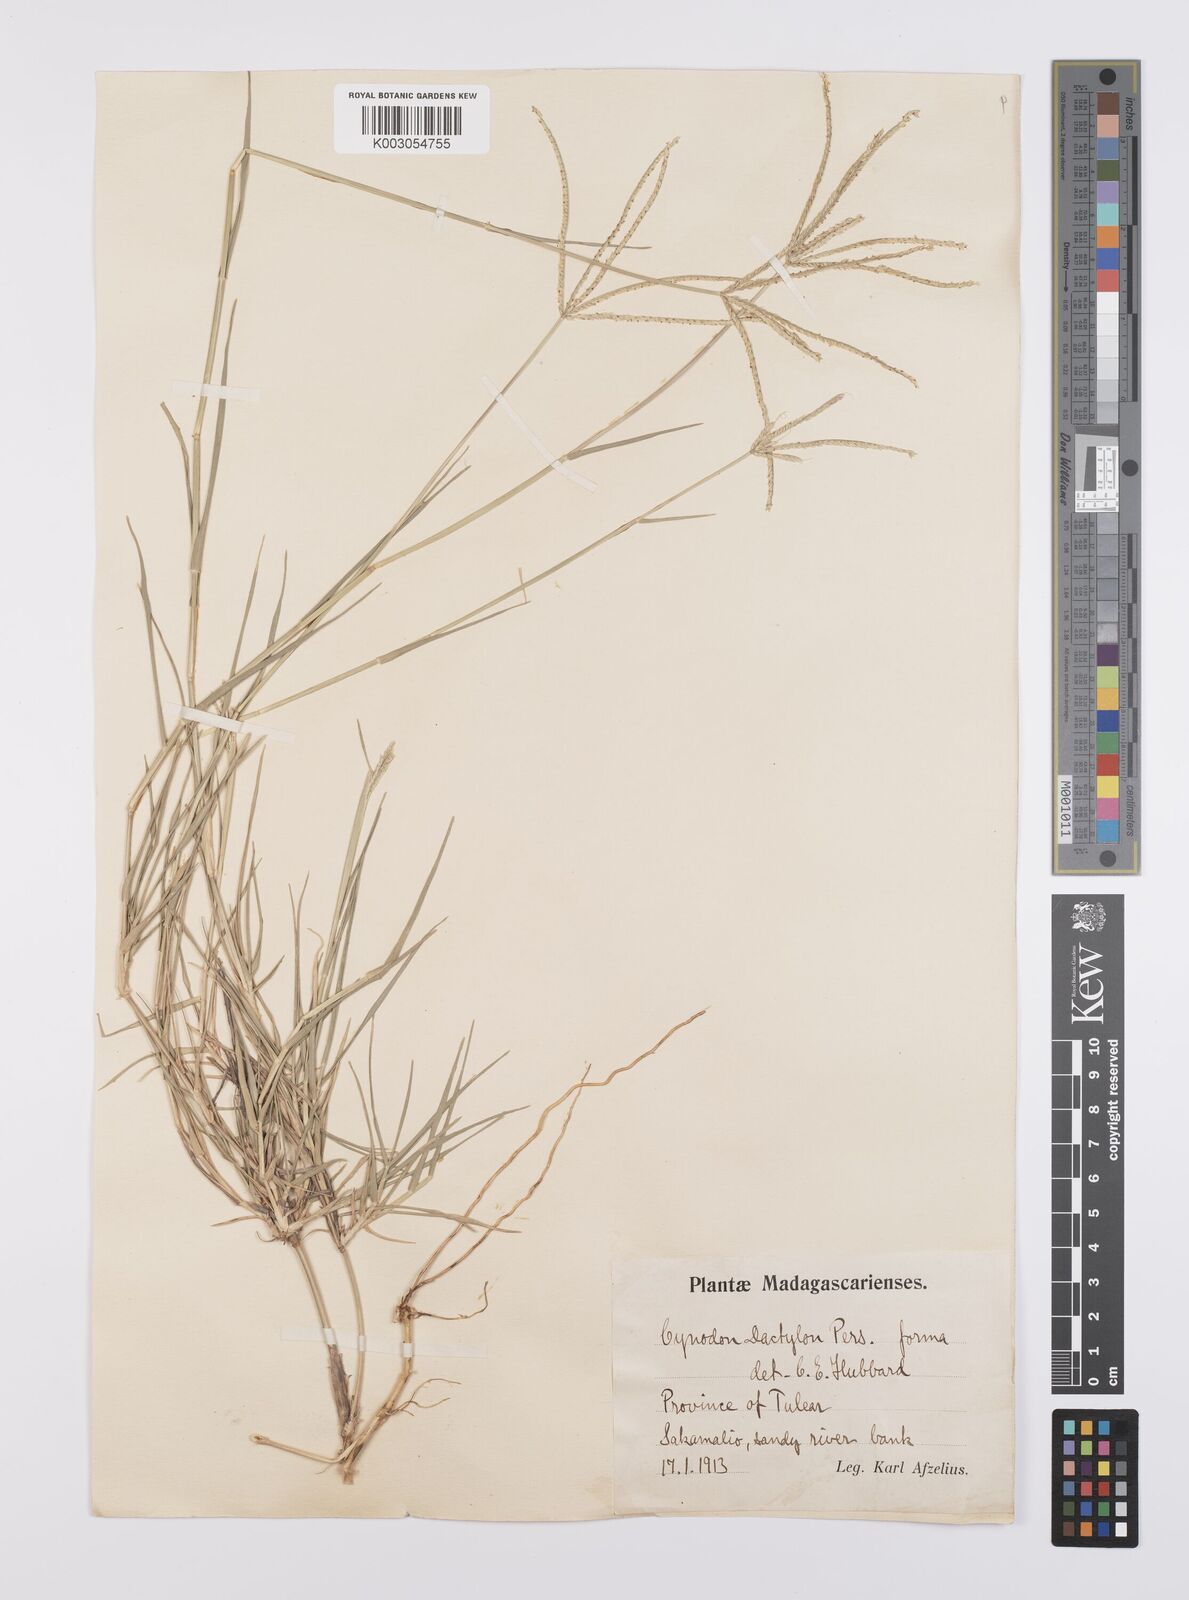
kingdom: Plantae
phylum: Tracheophyta
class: Liliopsida
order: Poales
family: Poaceae
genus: Cynodon
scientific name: Cynodon dactylon
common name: Bermuda grass
